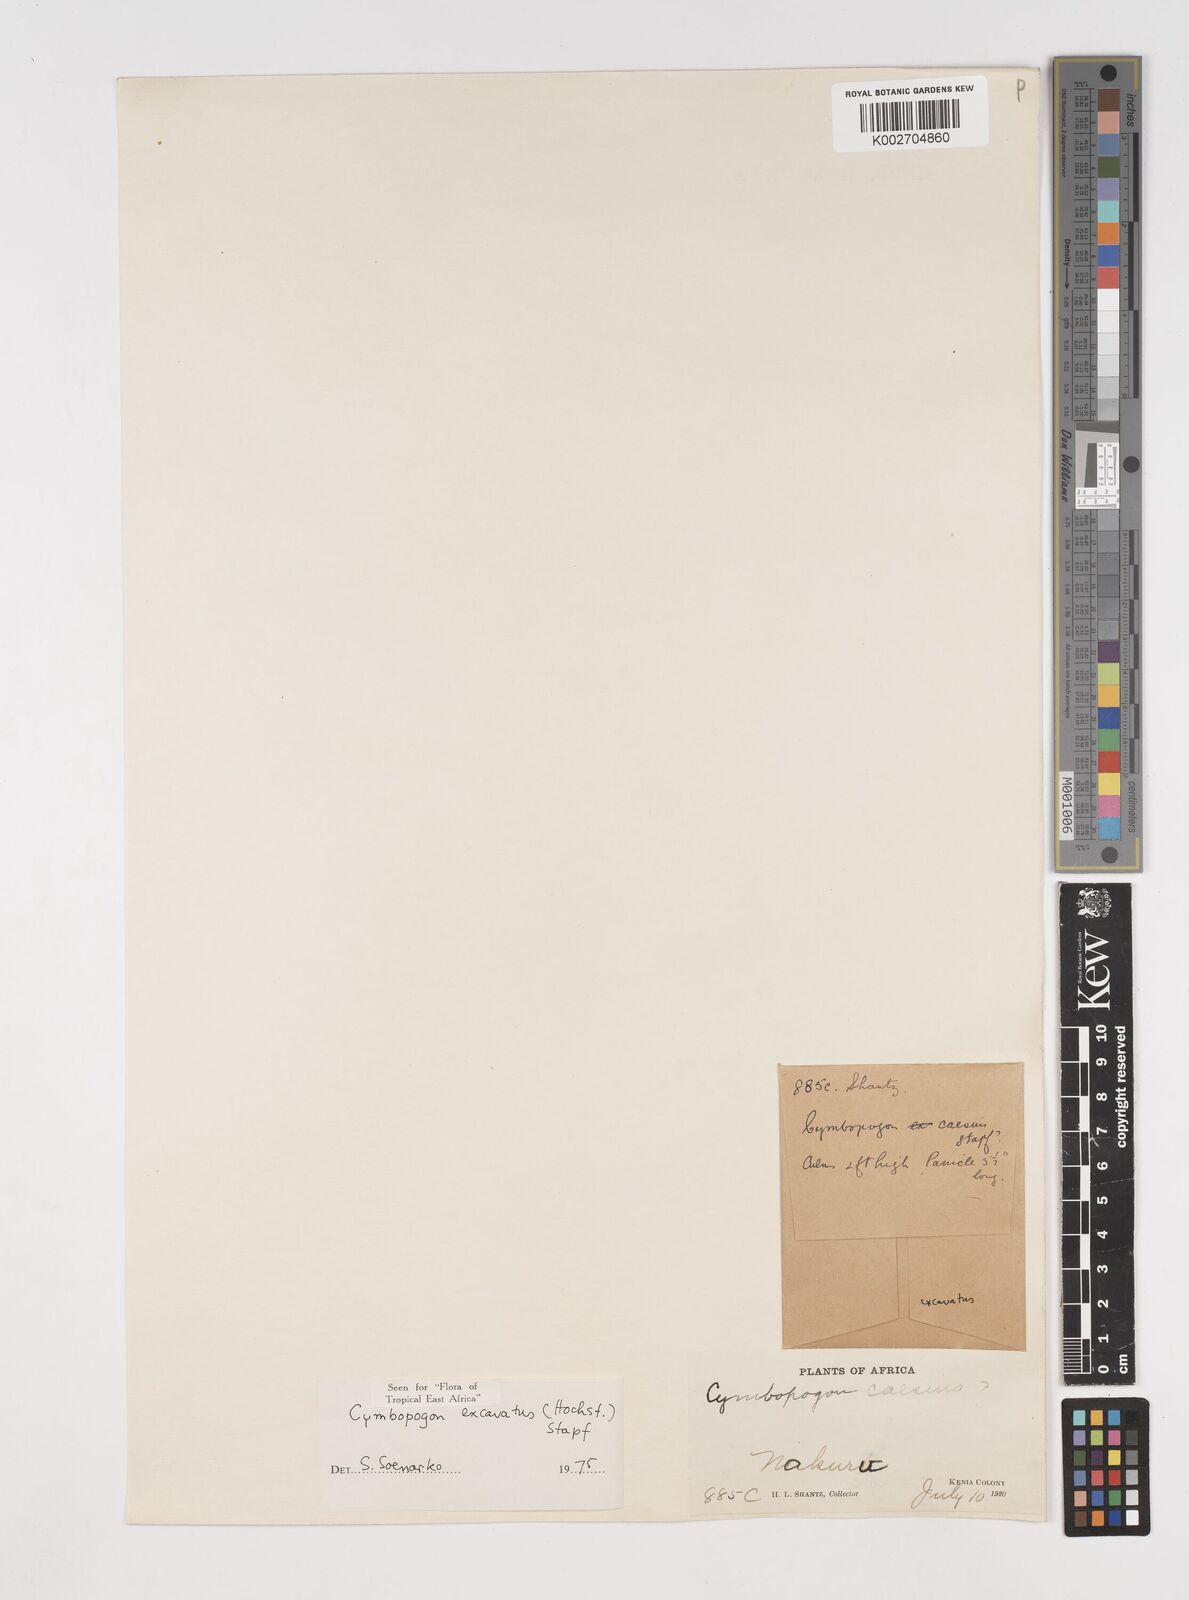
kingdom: Plantae
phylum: Tracheophyta
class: Liliopsida
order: Poales
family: Poaceae
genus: Cymbopogon
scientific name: Cymbopogon caesius
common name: Kachi grass
